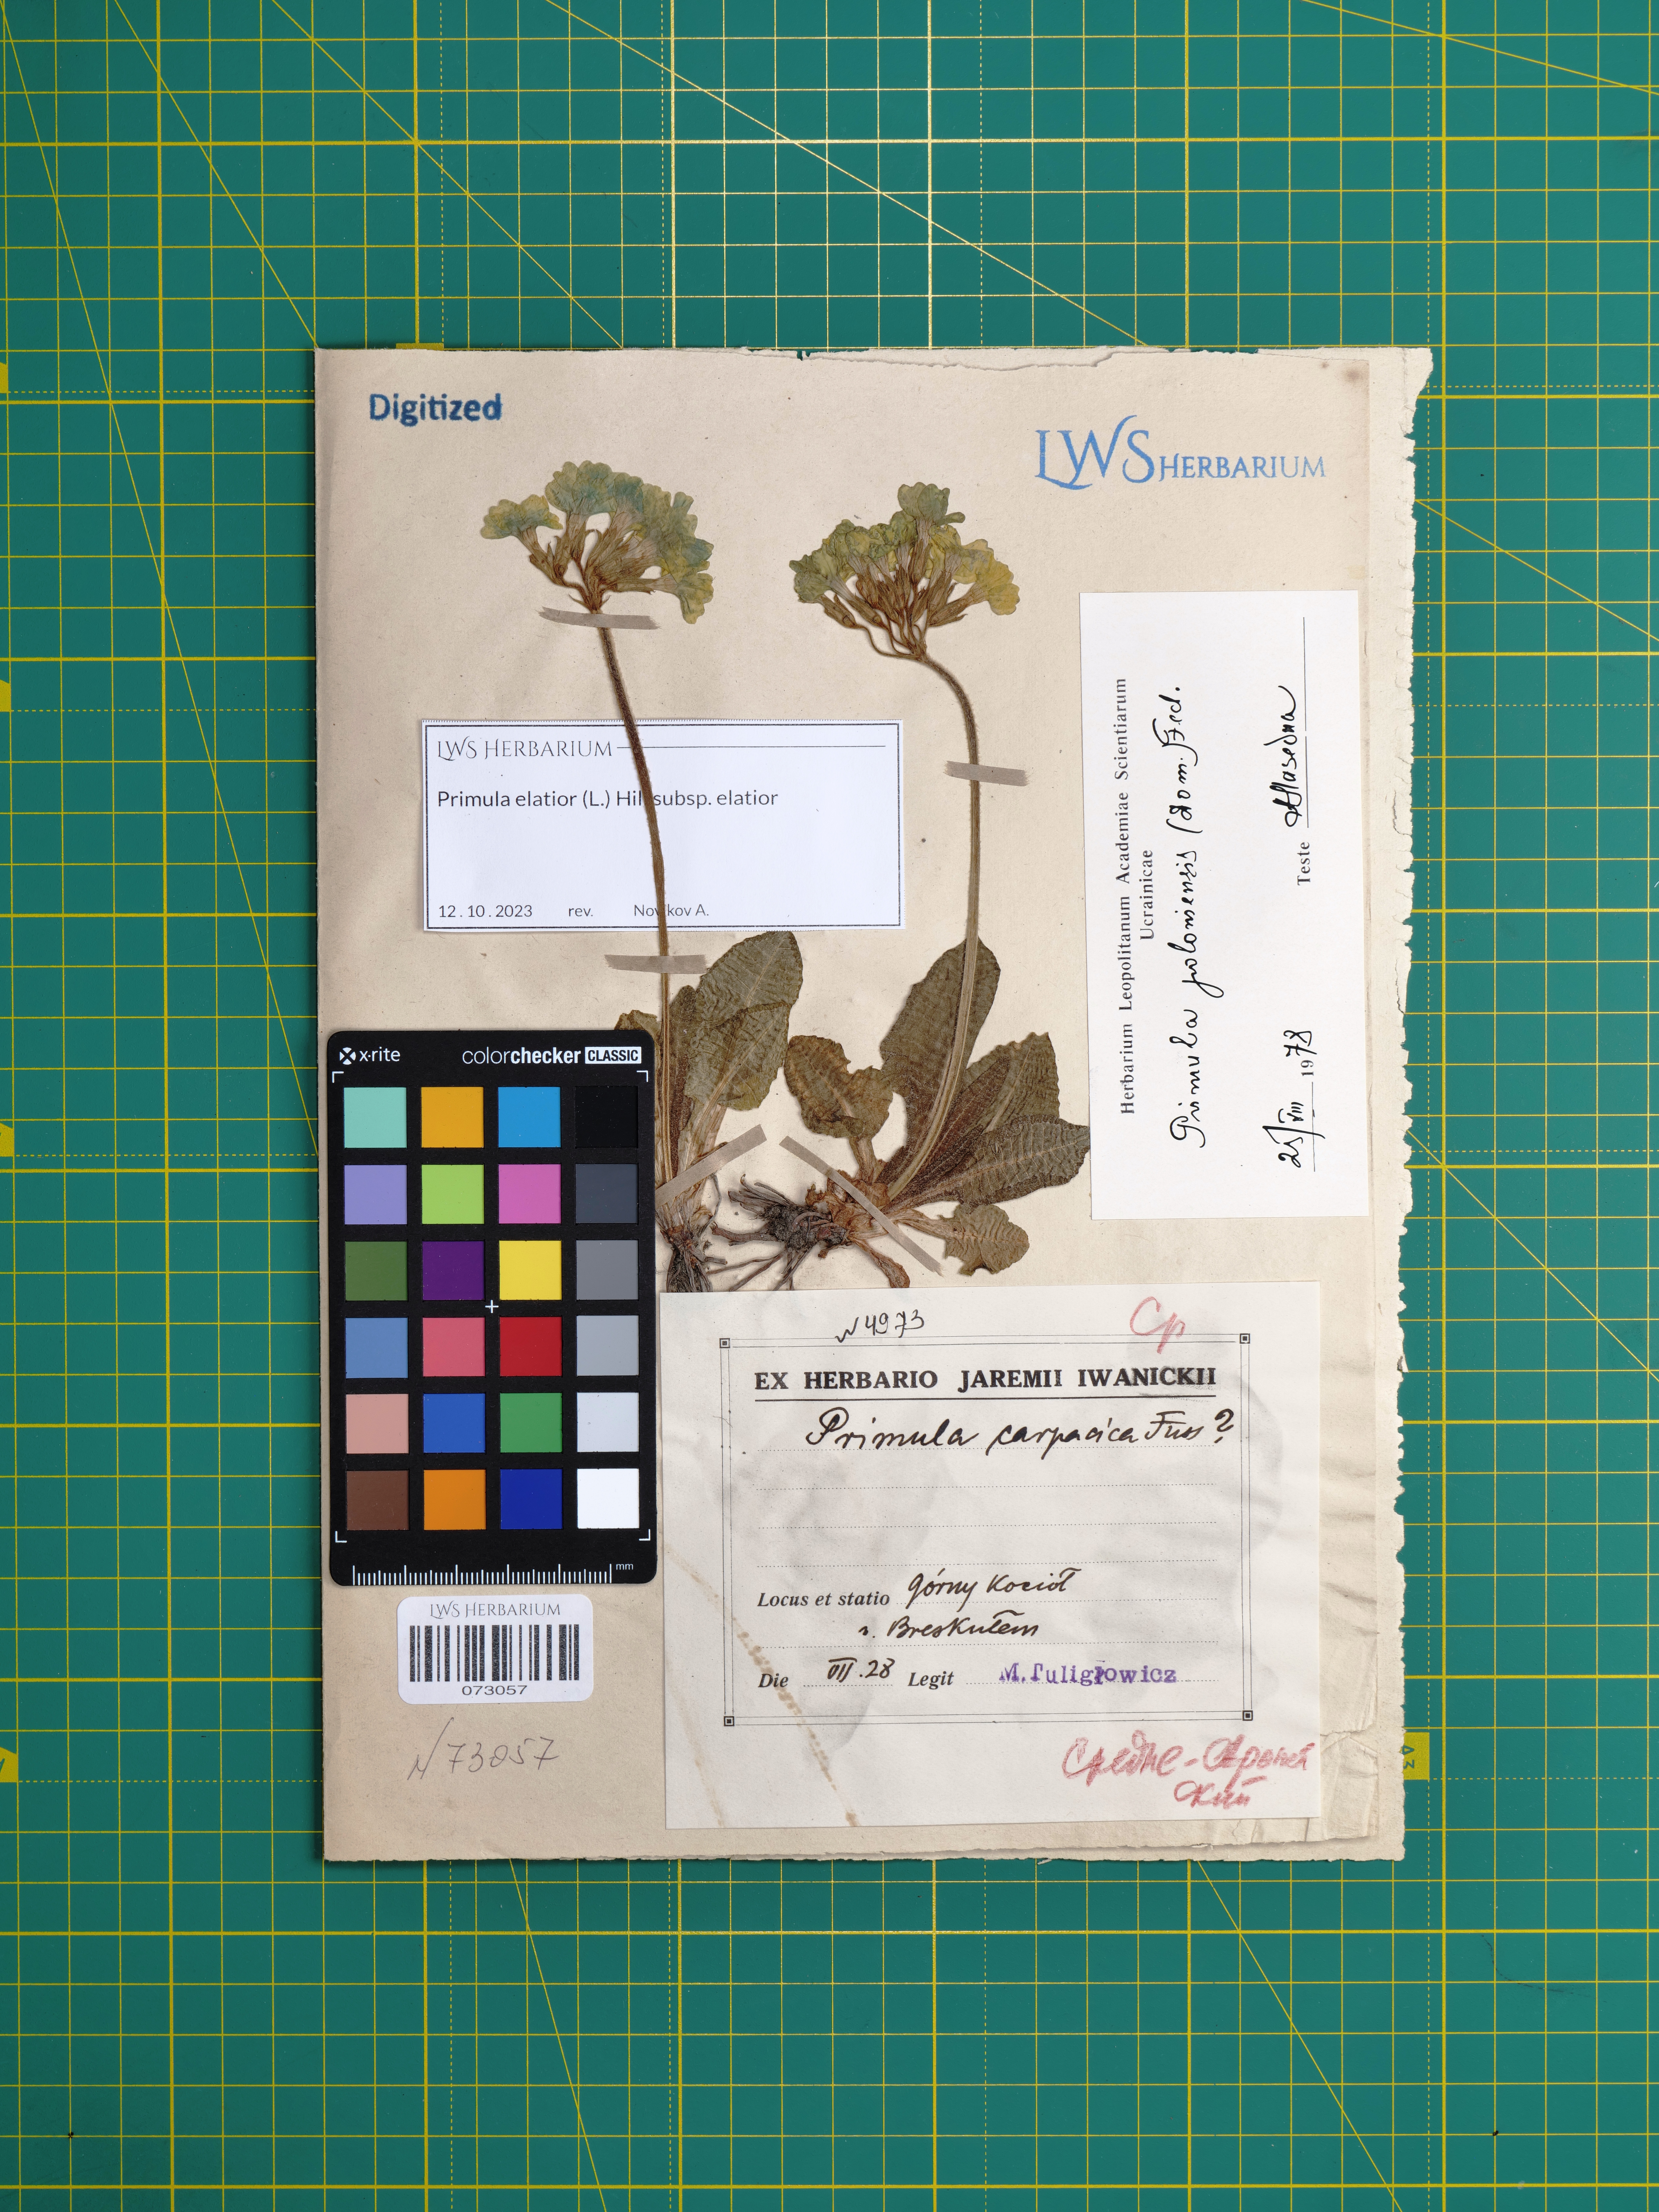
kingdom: Plantae
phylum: Tracheophyta
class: Magnoliopsida
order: Ericales
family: Primulaceae
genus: Primula
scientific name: Primula elatior
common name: Oxlip
